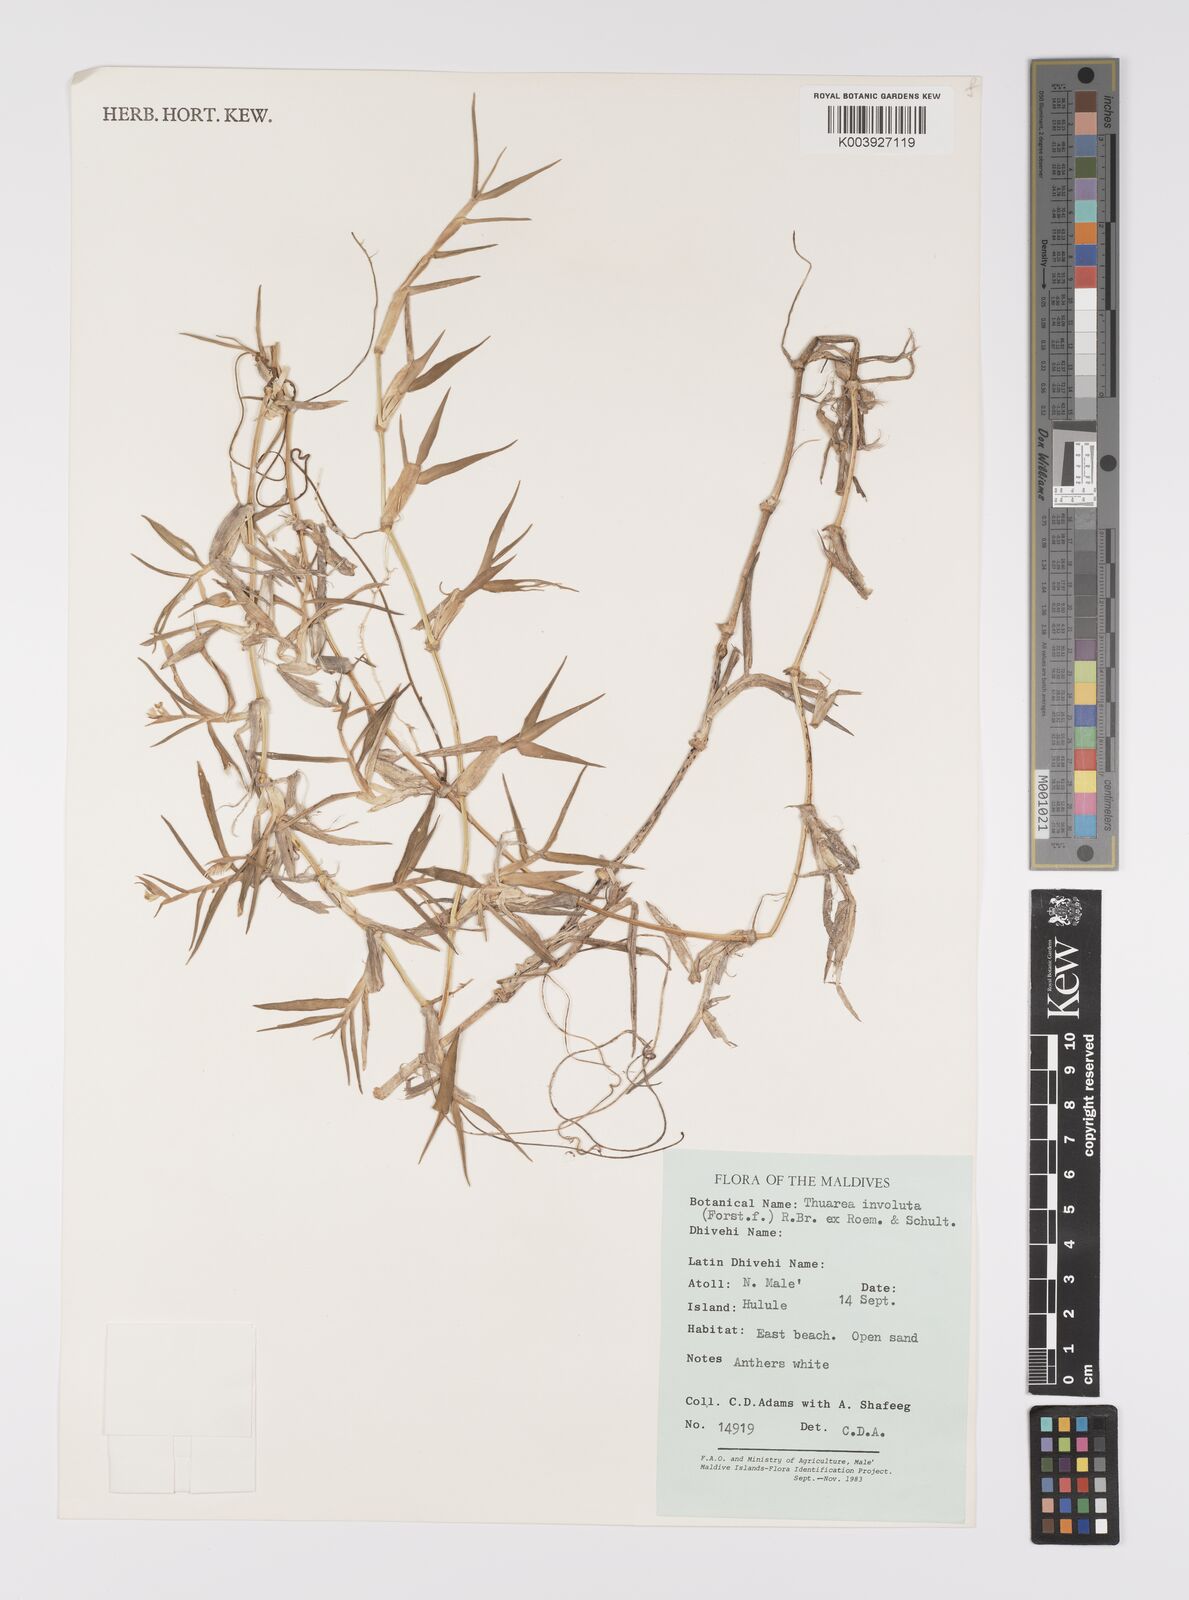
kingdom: Plantae
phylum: Tracheophyta
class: Liliopsida
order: Poales
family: Poaceae
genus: Thuarea
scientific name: Thuarea involuta
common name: Tropical beach grass
